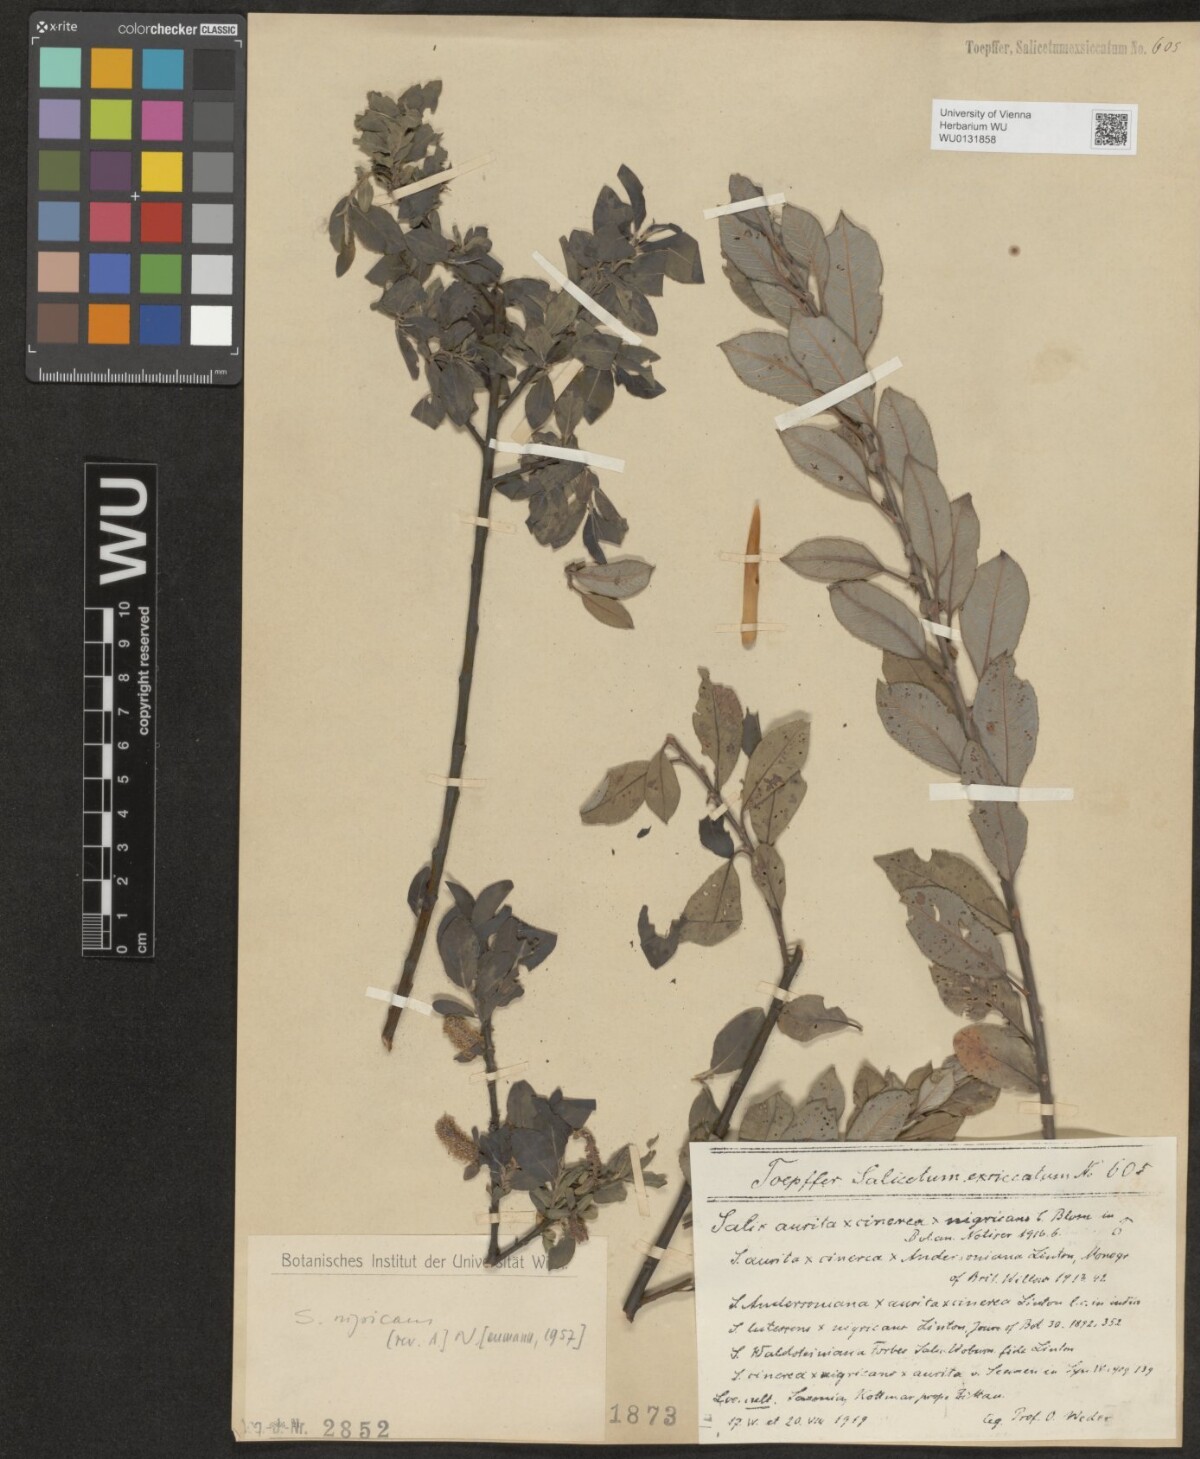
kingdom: Plantae
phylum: Tracheophyta
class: Magnoliopsida
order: Malpighiales
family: Salicaceae
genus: Salix
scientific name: Salix myrsinifolia
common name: Dark-leaved willow
